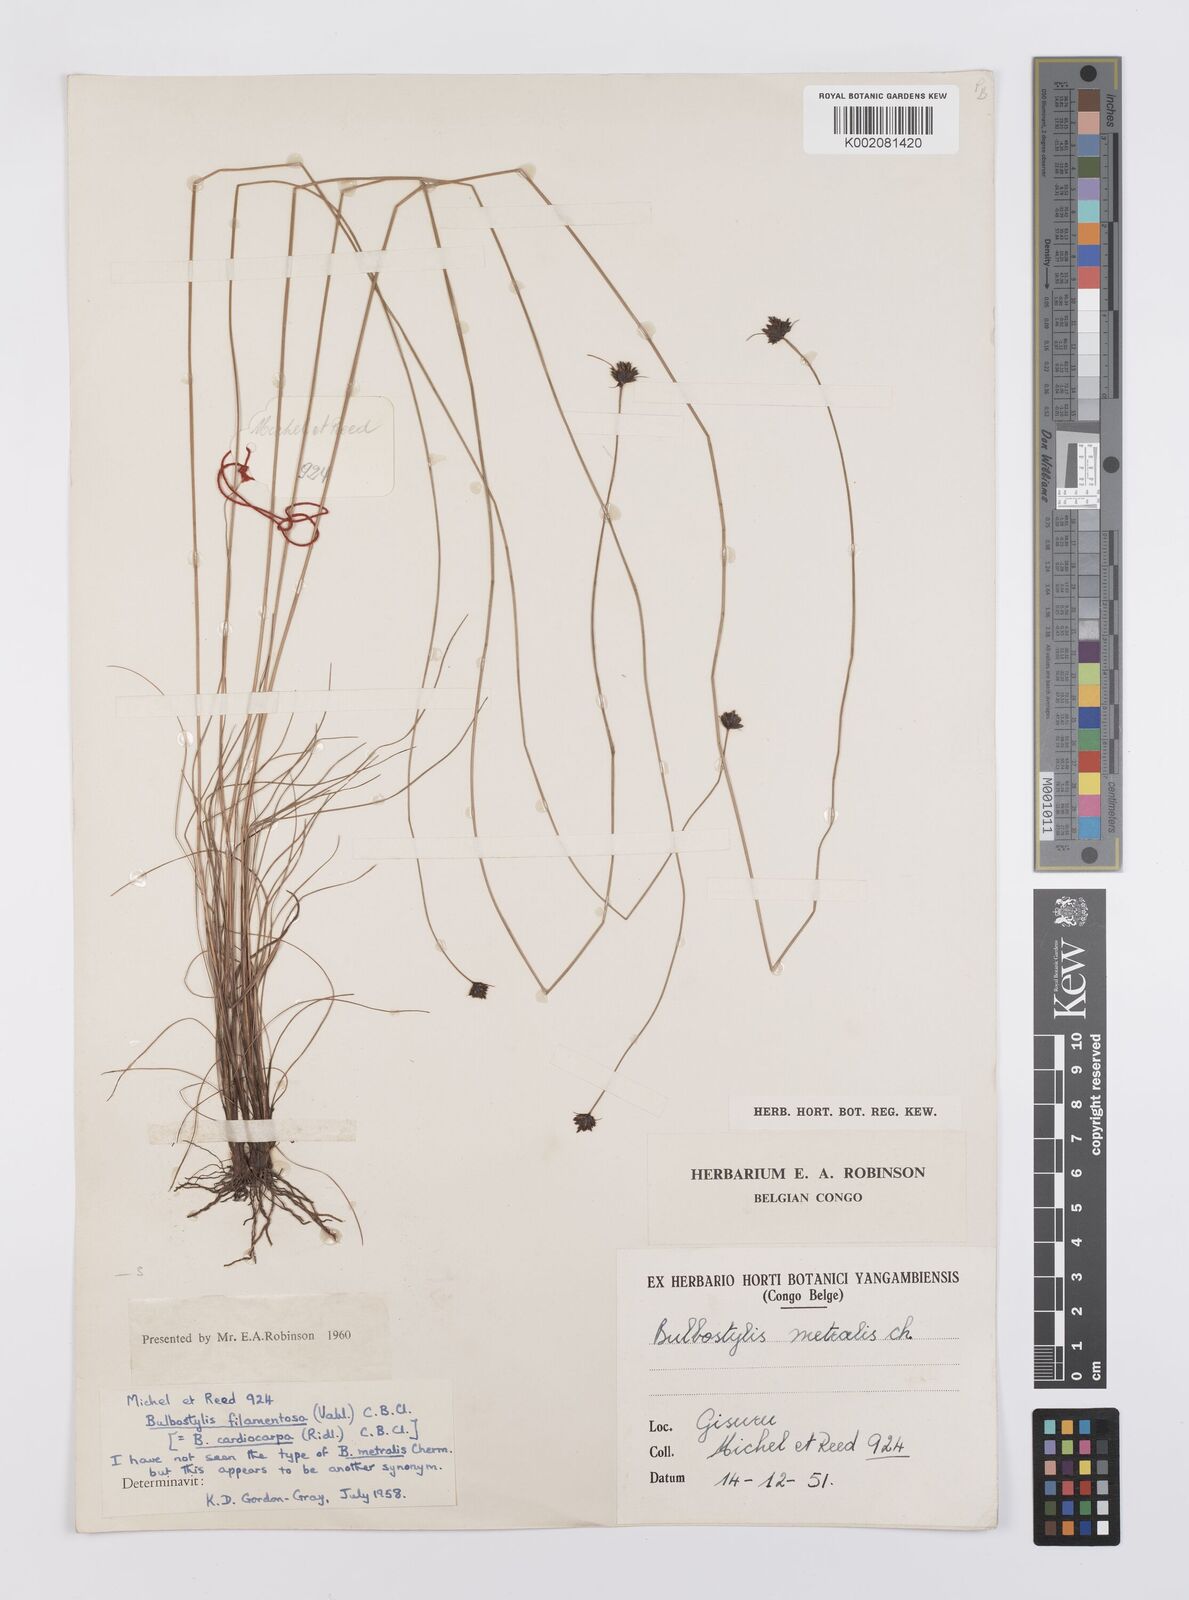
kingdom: Plantae
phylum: Tracheophyta
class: Liliopsida
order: Poales
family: Cyperaceae
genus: Bulbostylis
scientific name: Bulbostylis filamentosa
